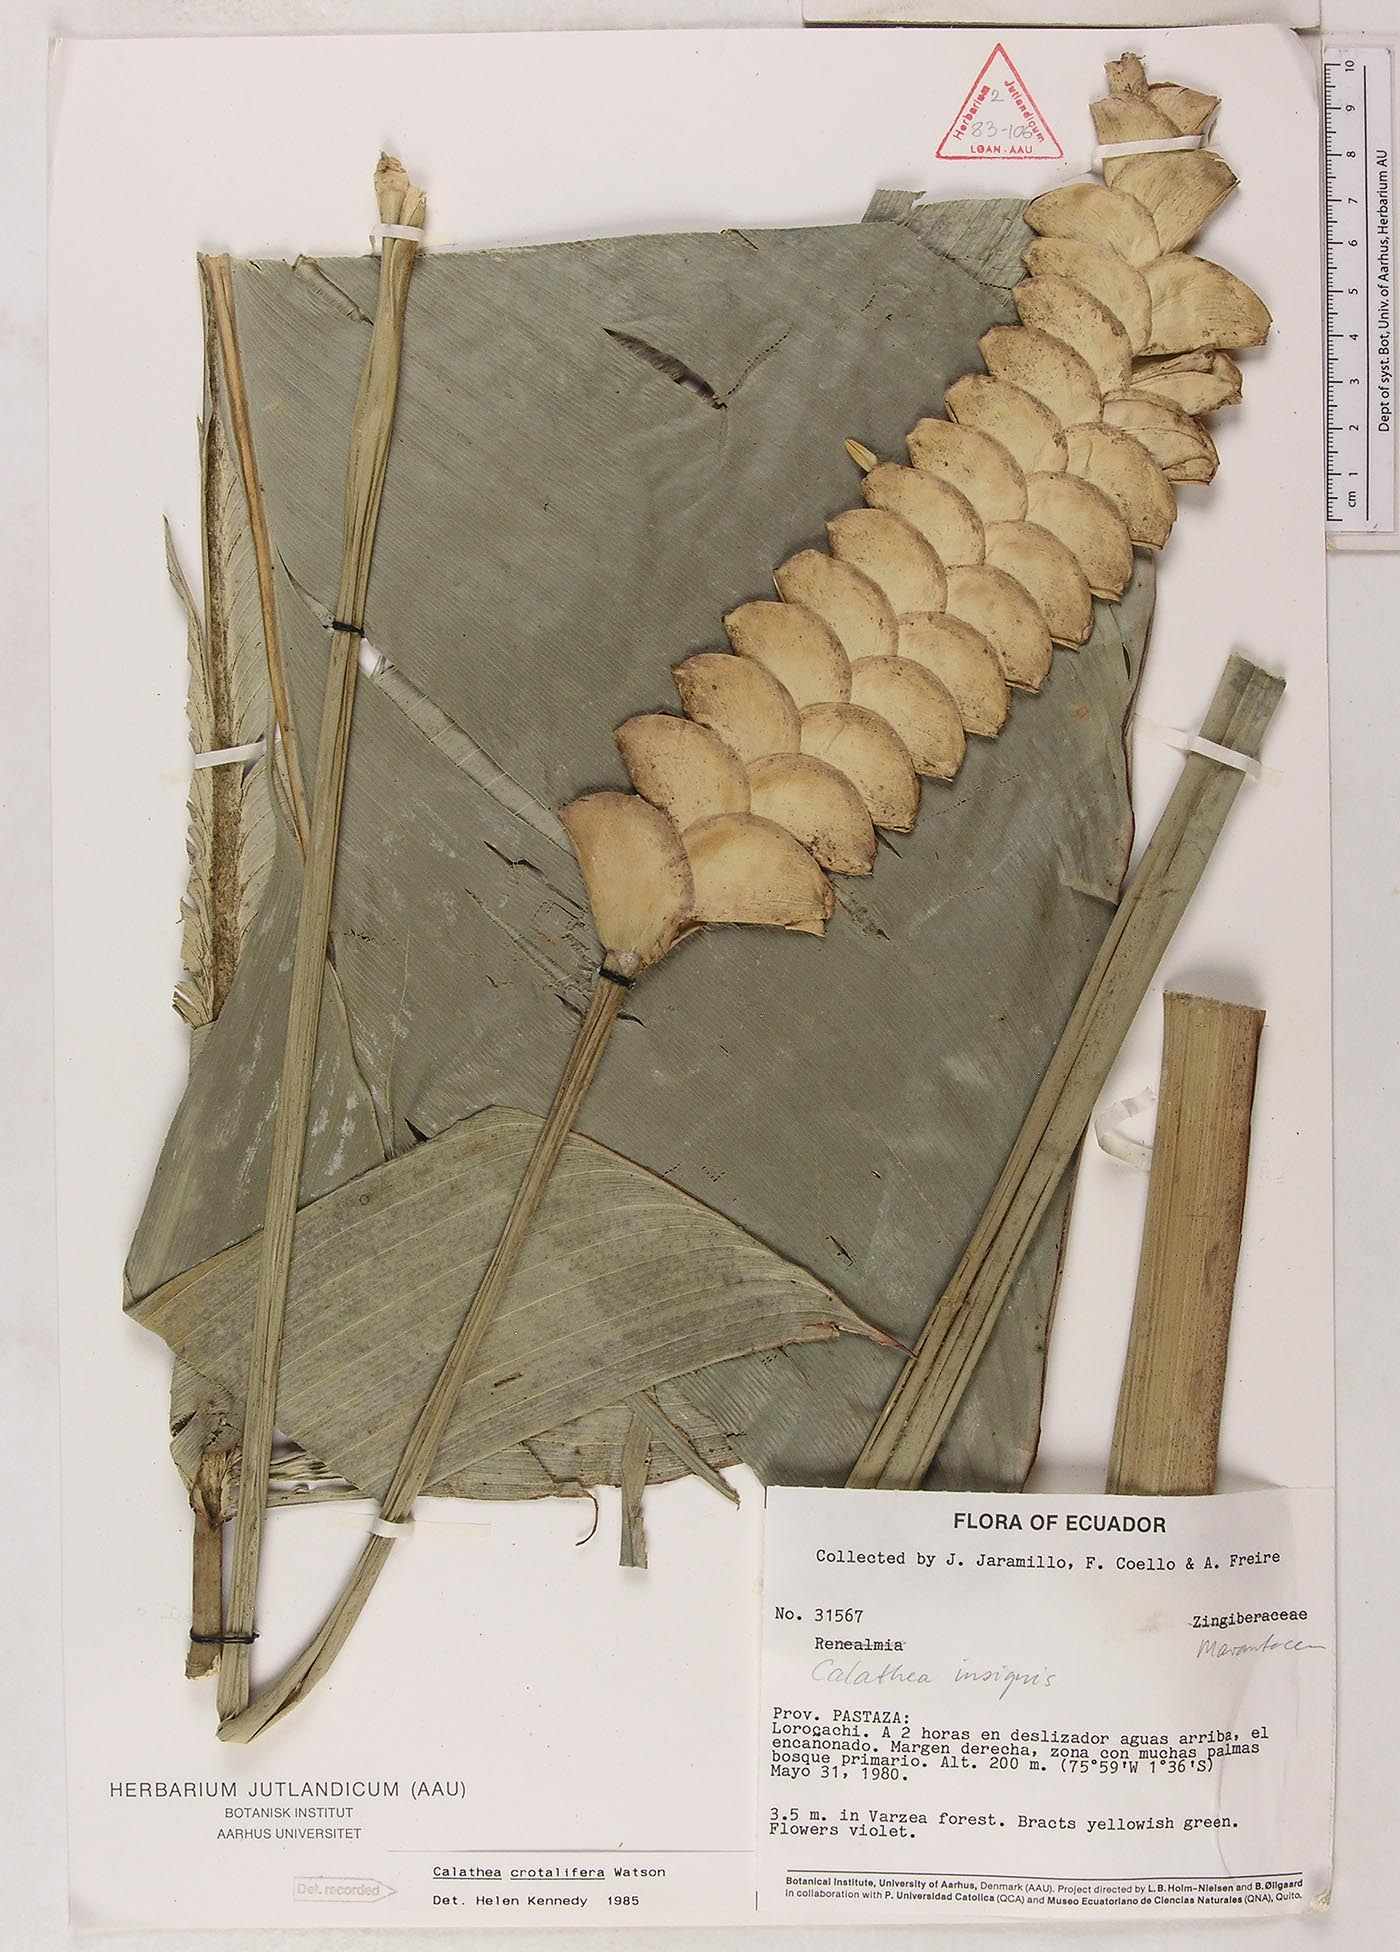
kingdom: Plantae
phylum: Tracheophyta
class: Liliopsida
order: Zingiberales
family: Marantaceae
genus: Calathea
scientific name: Calathea crotalifera
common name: Rattlesnake plant
